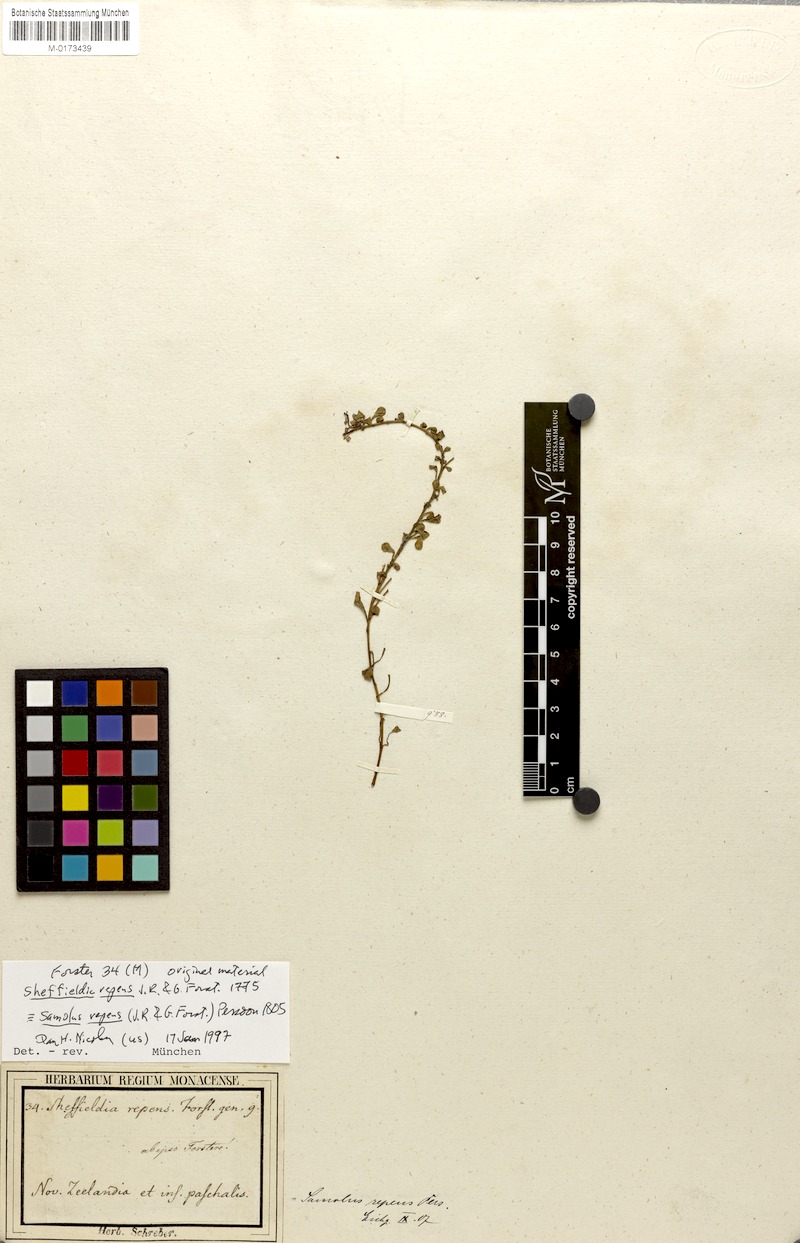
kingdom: Plantae
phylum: Tracheophyta
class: Magnoliopsida
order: Ericales
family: Primulaceae
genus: Samolus
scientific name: Samolus repens
